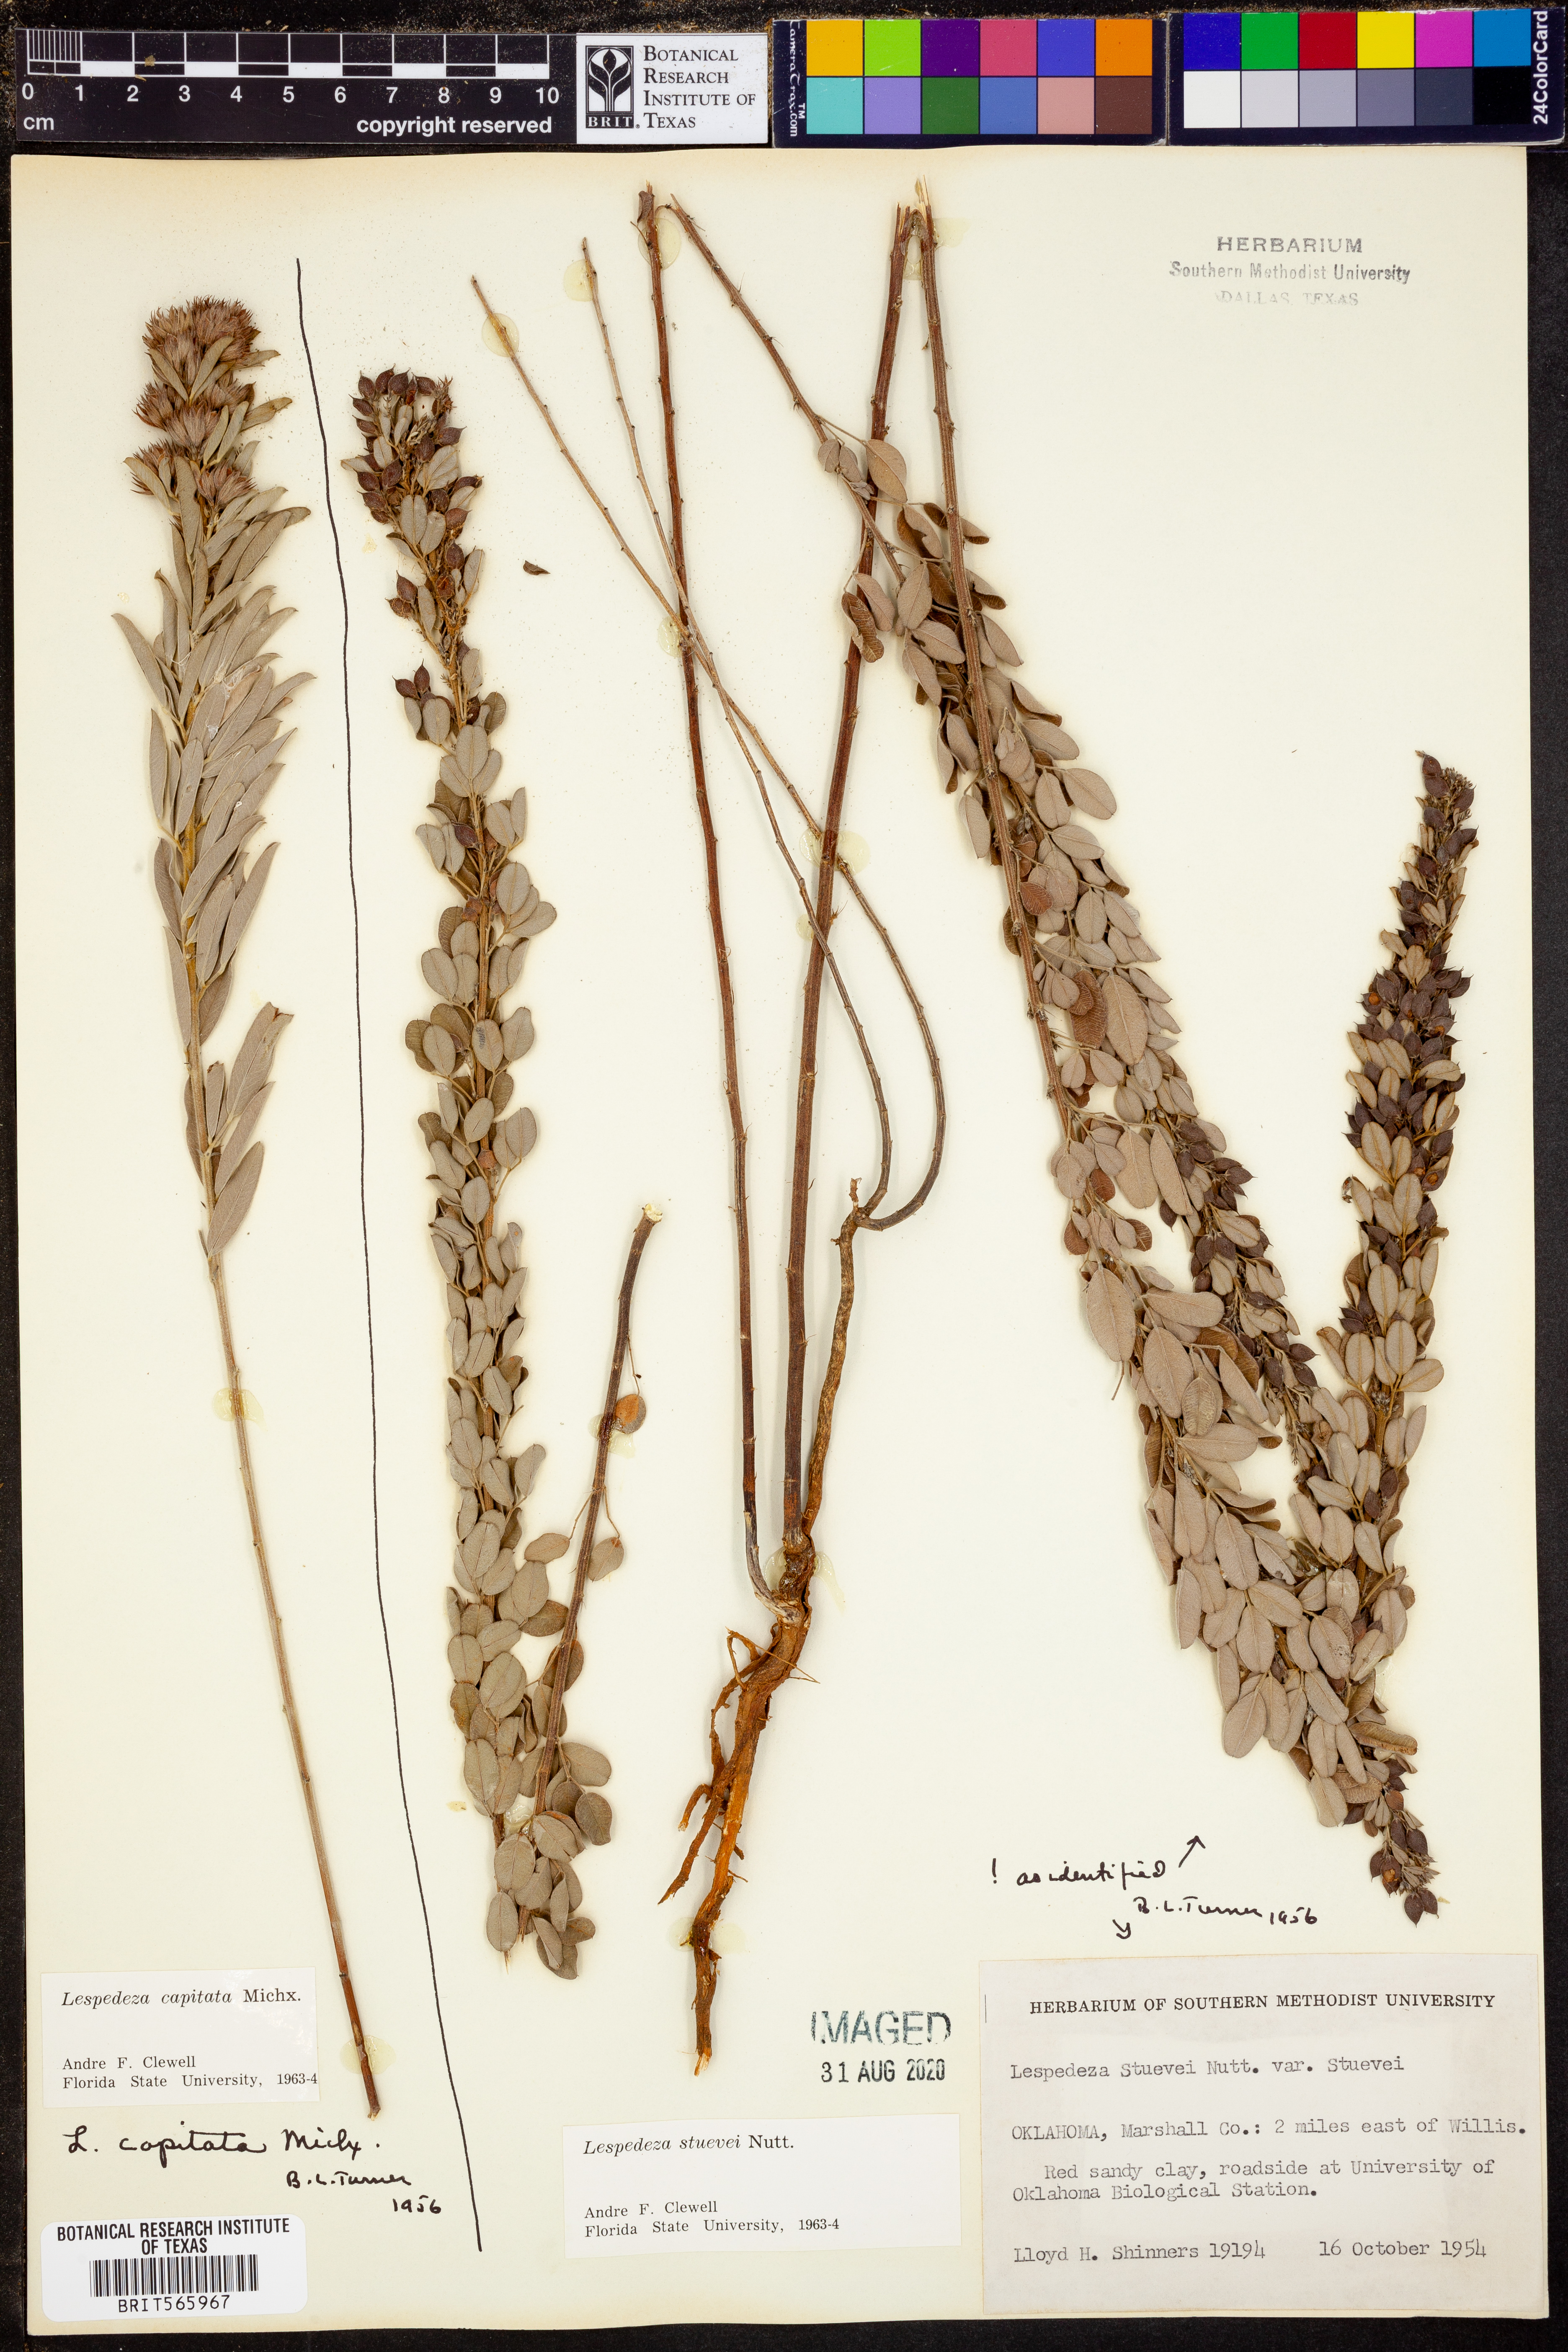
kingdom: Plantae
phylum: Tracheophyta
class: Magnoliopsida
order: Fabales
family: Fabaceae
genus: Lespedeza
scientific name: Lespedeza stuevei
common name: Tall bush-clover
